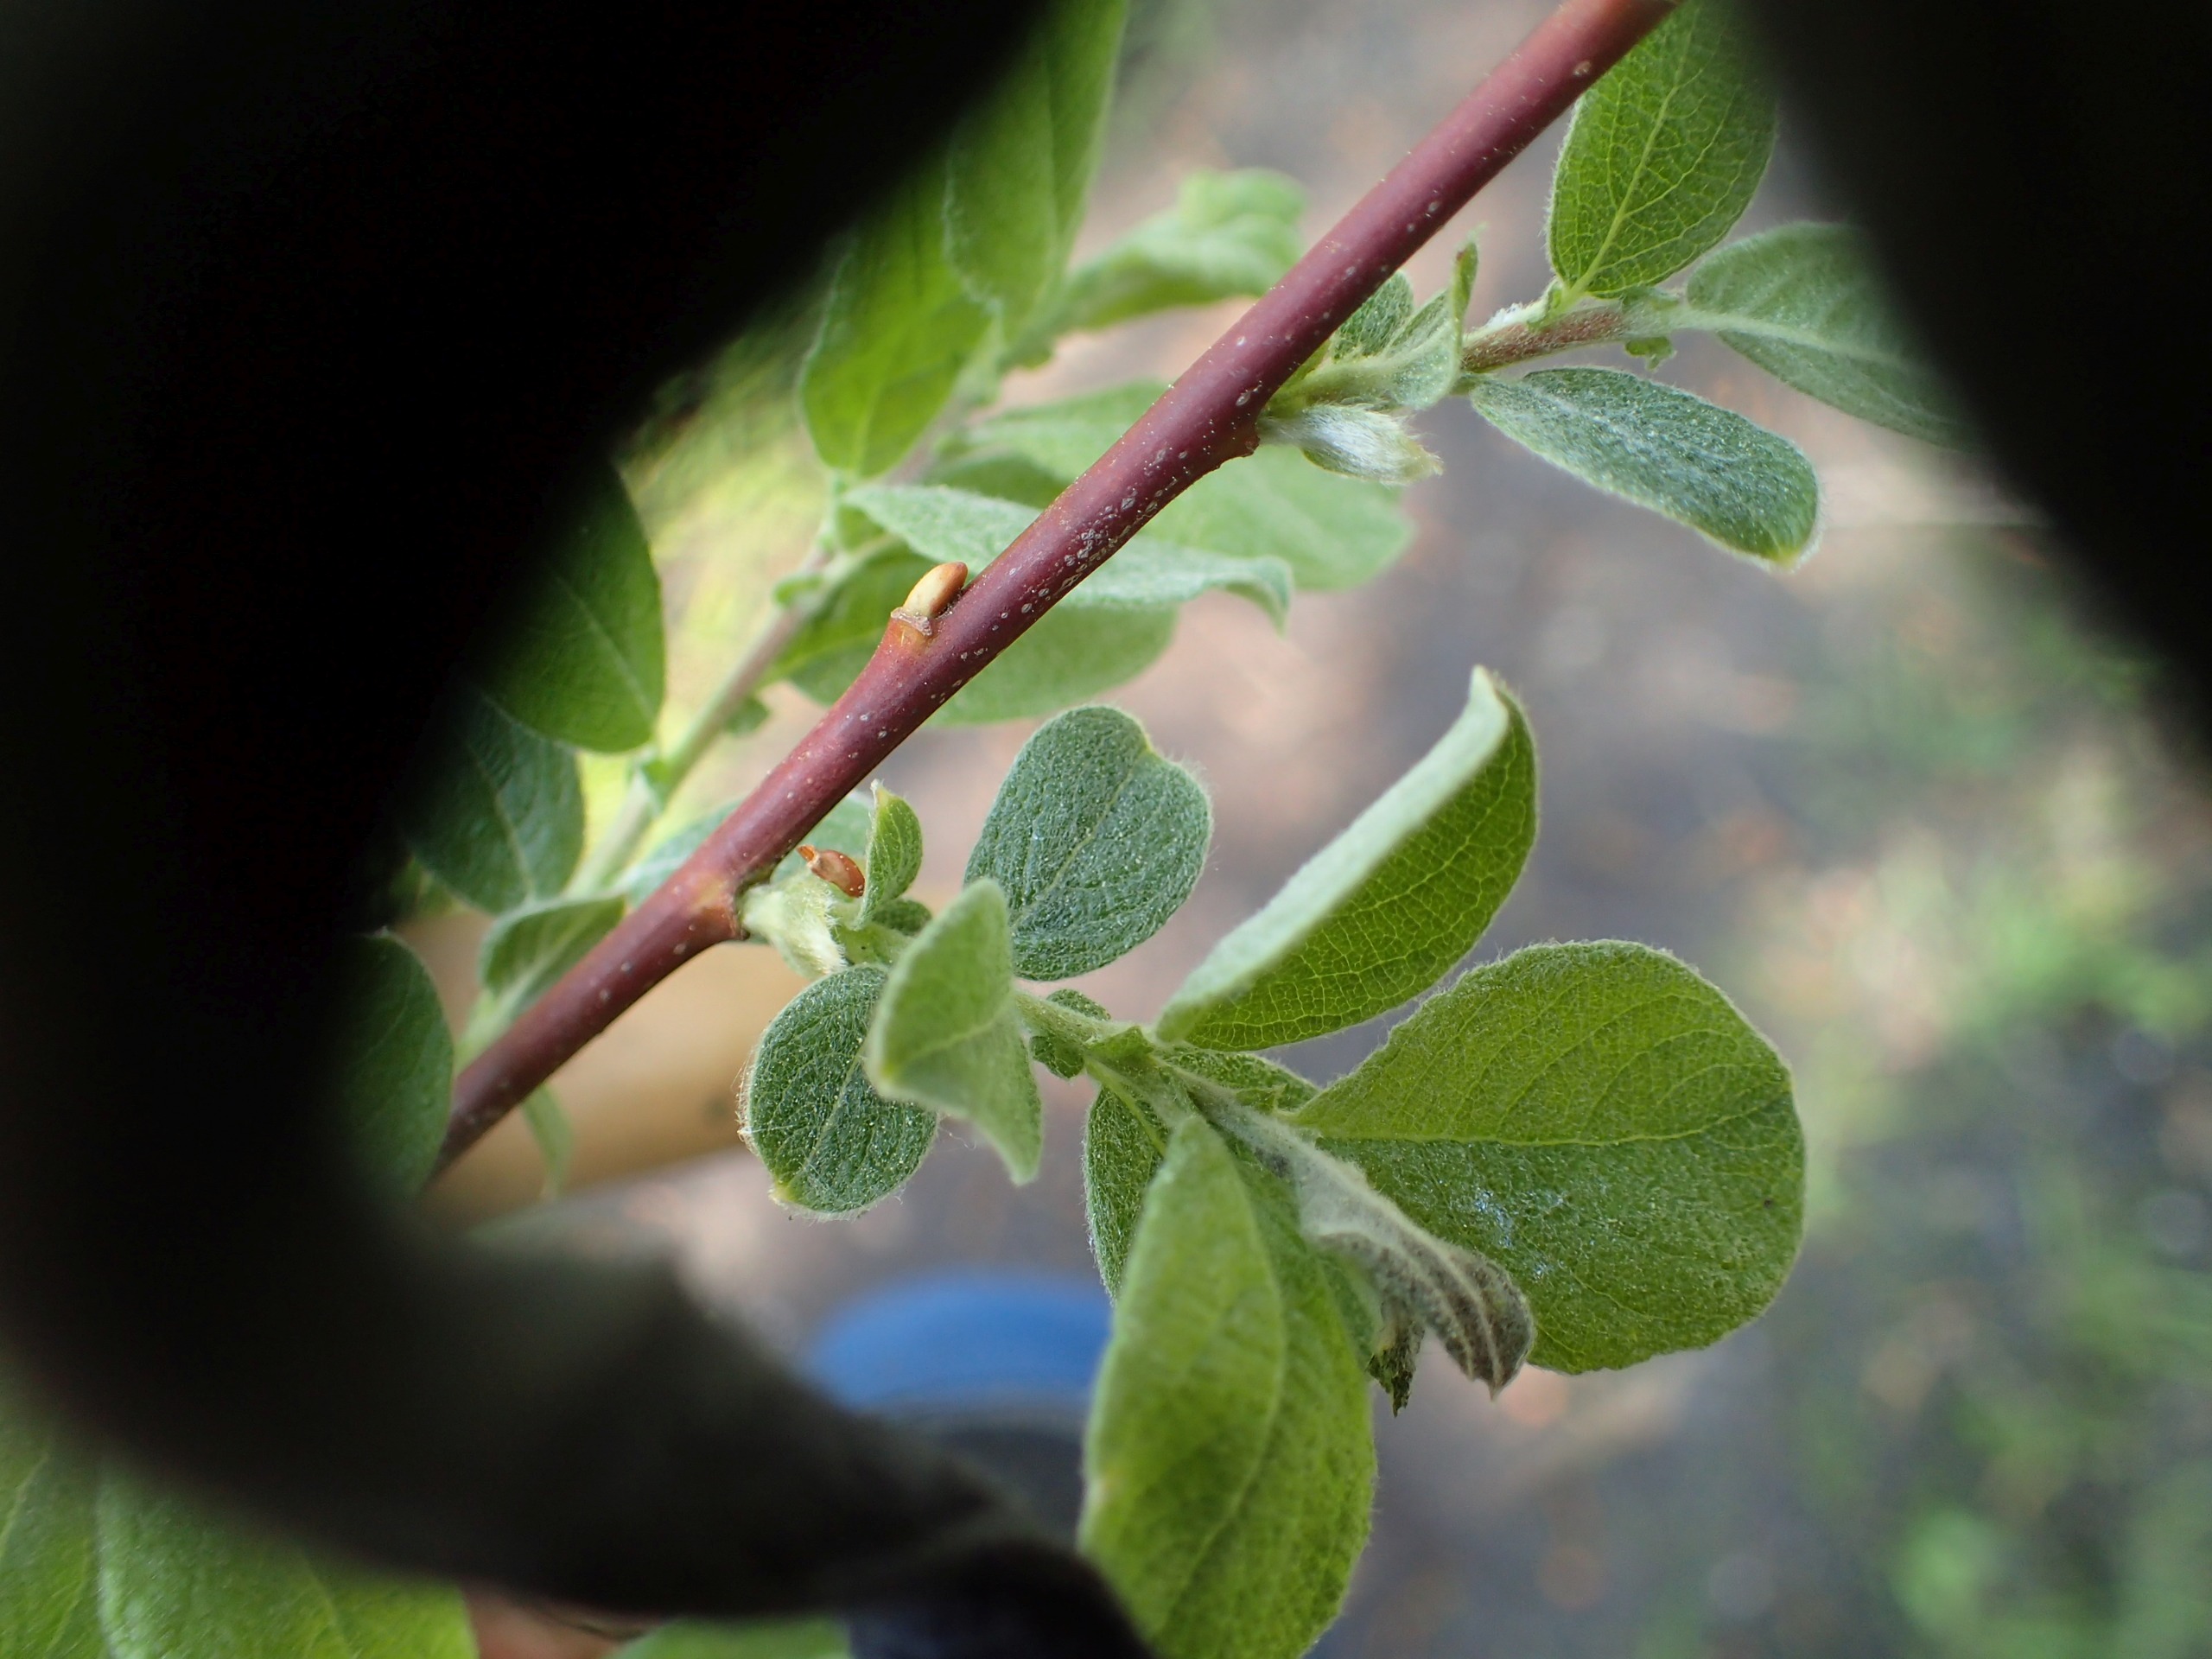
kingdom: Plantae
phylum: Tracheophyta
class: Magnoliopsida
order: Malpighiales
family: Salicaceae
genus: Salix
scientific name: Salix aurita
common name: Øret pil
